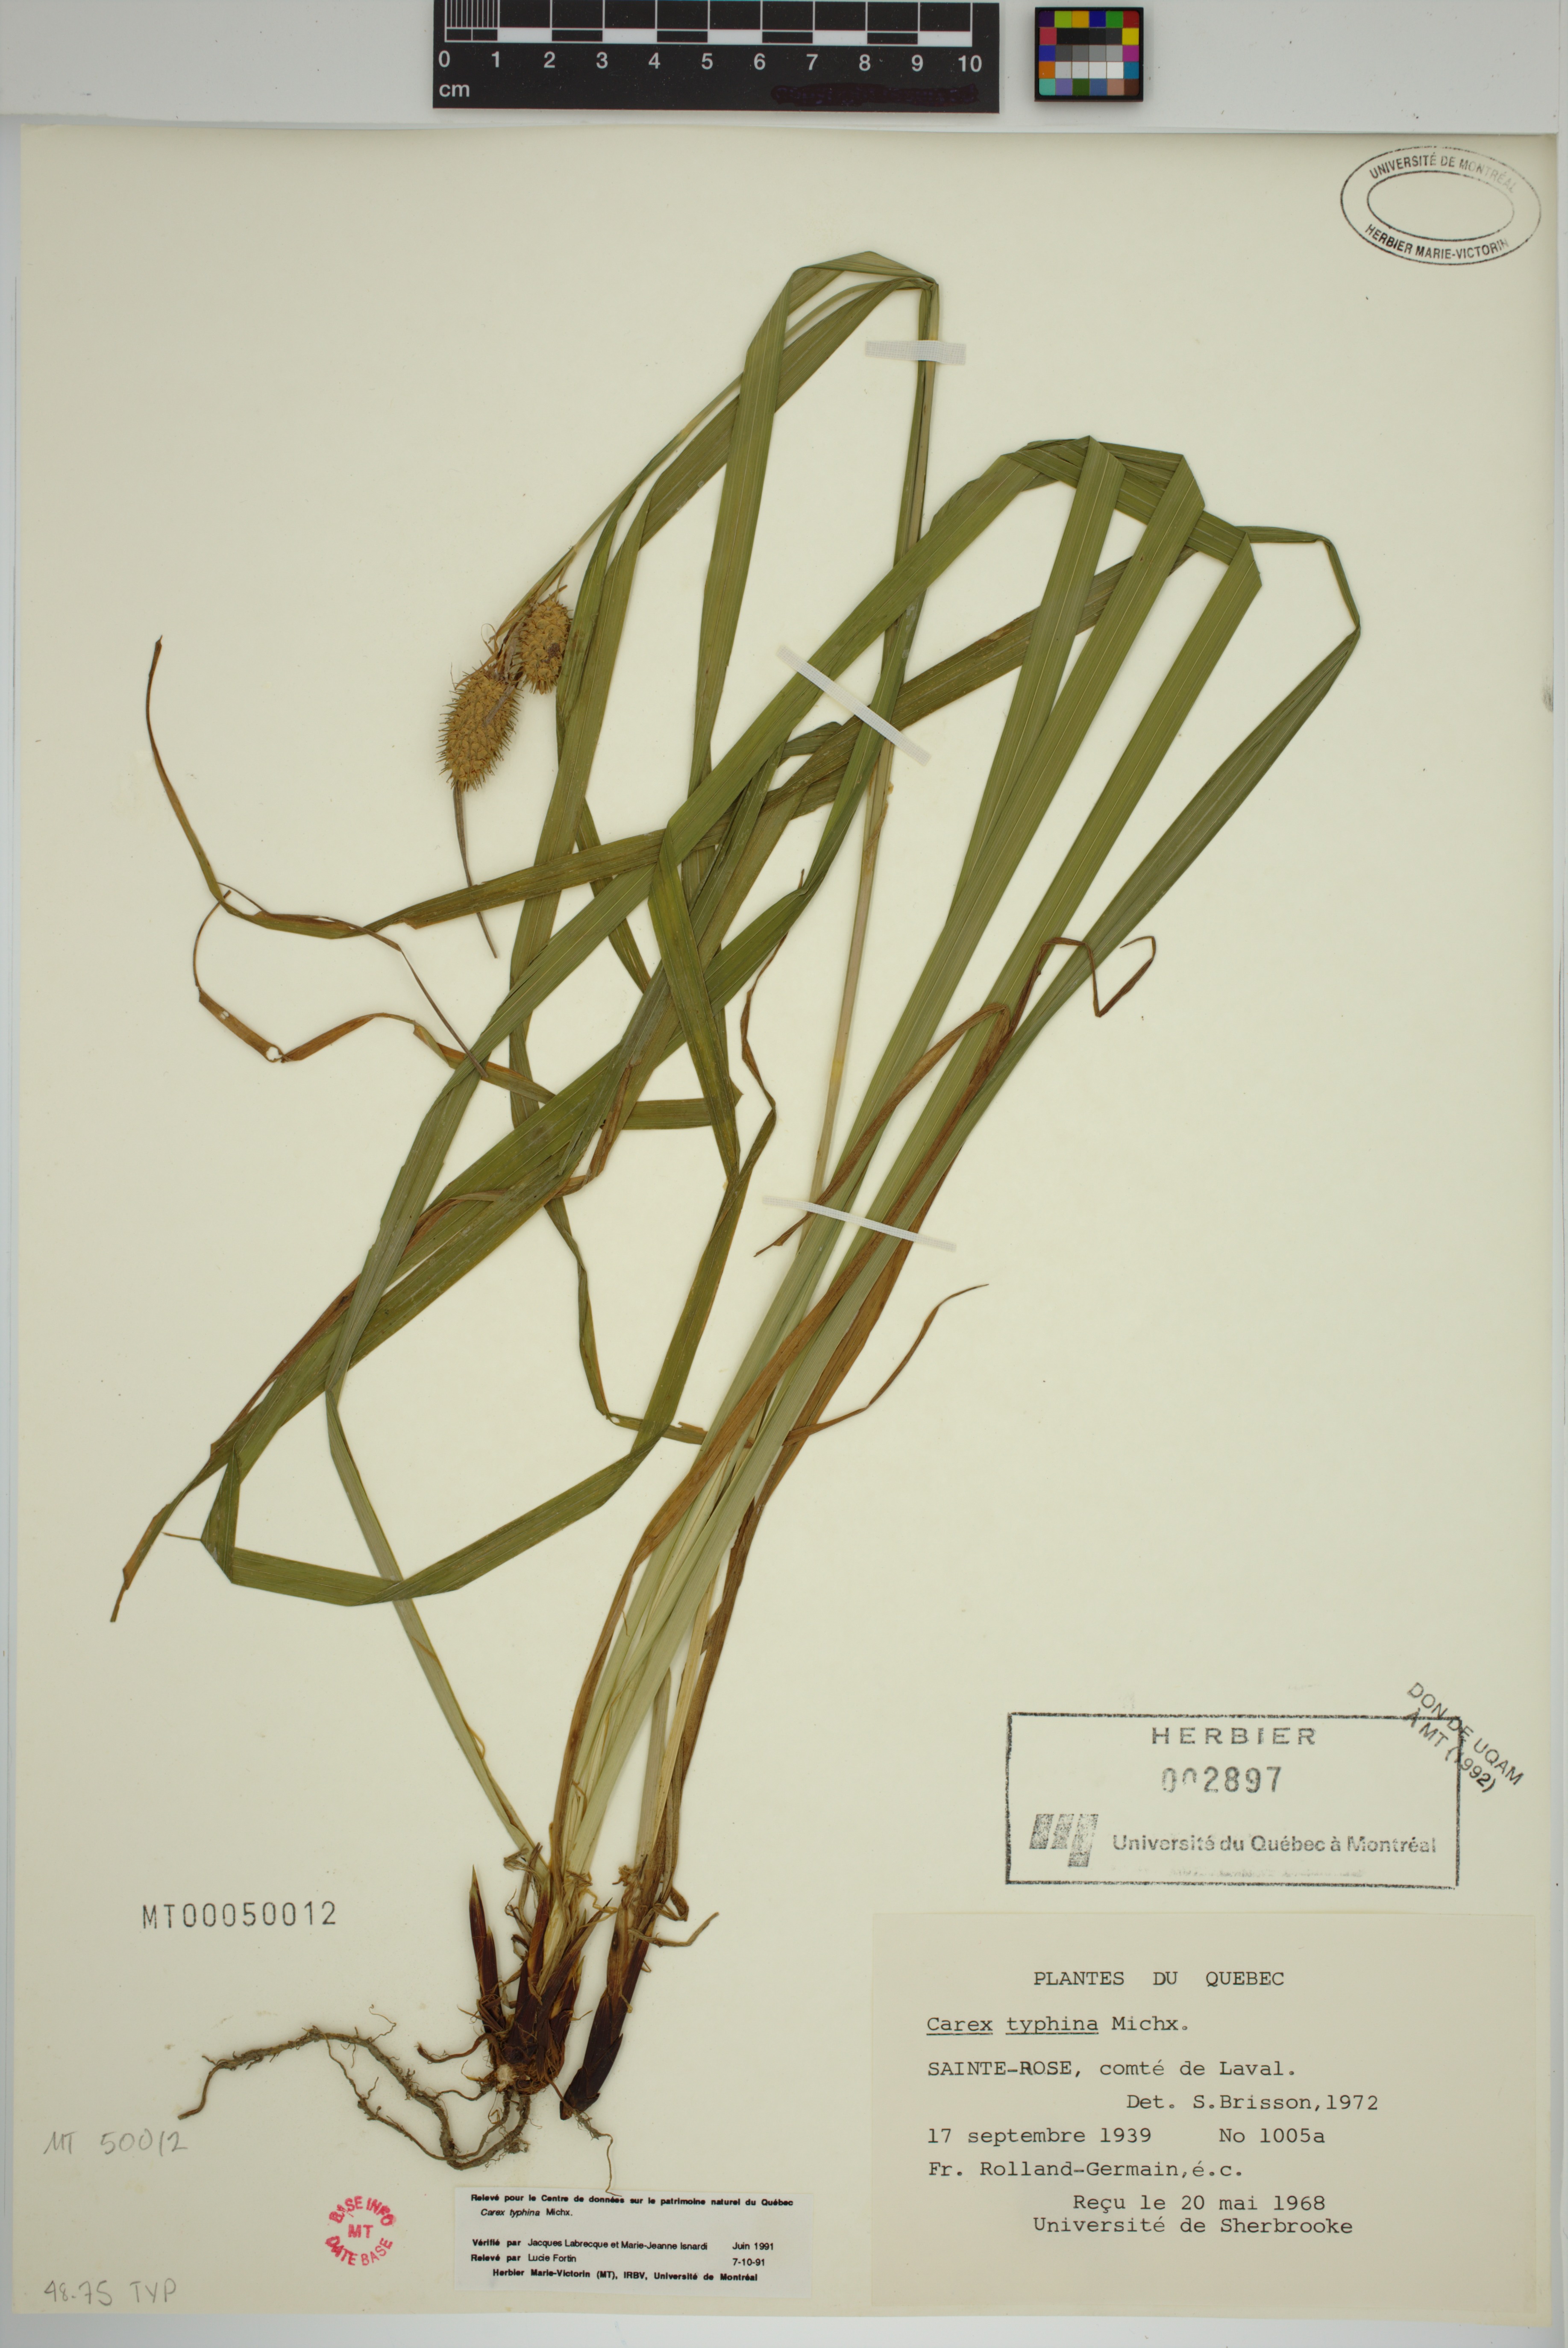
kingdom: Plantae
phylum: Tracheophyta
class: Liliopsida
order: Poales
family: Cyperaceae
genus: Carex
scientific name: Carex typhina
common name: Cattail sedge
